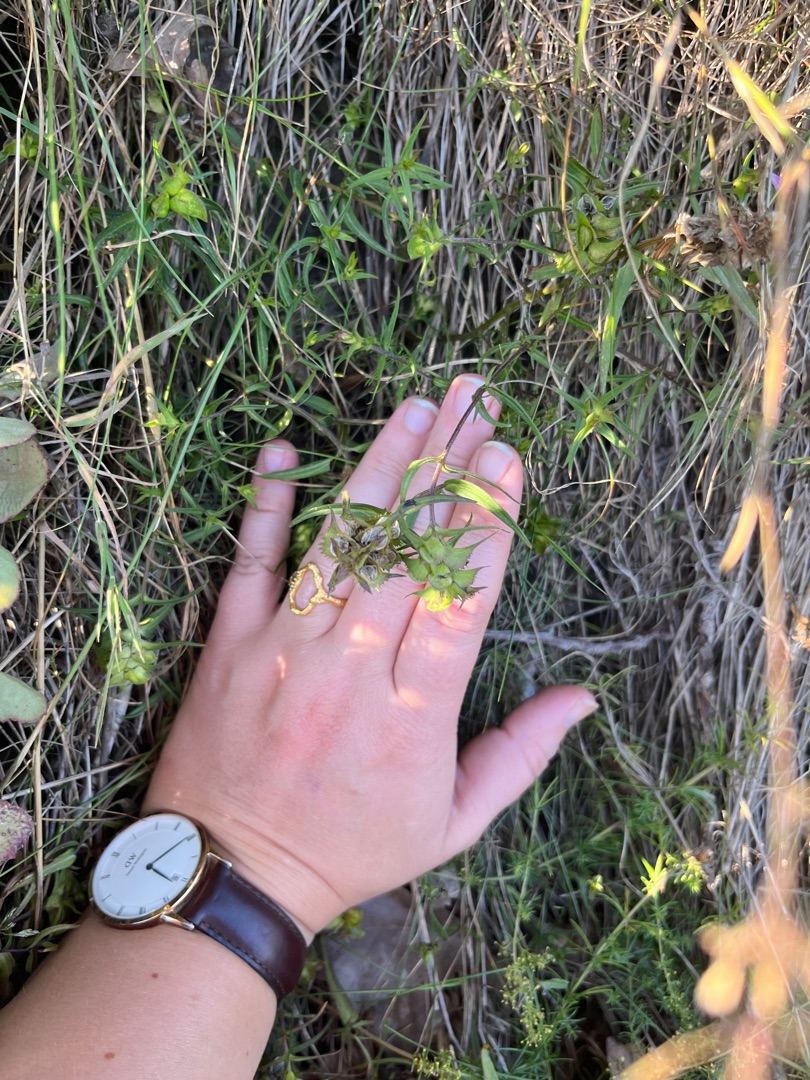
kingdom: Plantae
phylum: Tracheophyta
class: Magnoliopsida
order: Lamiales
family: Orobanchaceae
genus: Melampyrum
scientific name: Melampyrum cristatum
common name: Kantet kohvede
